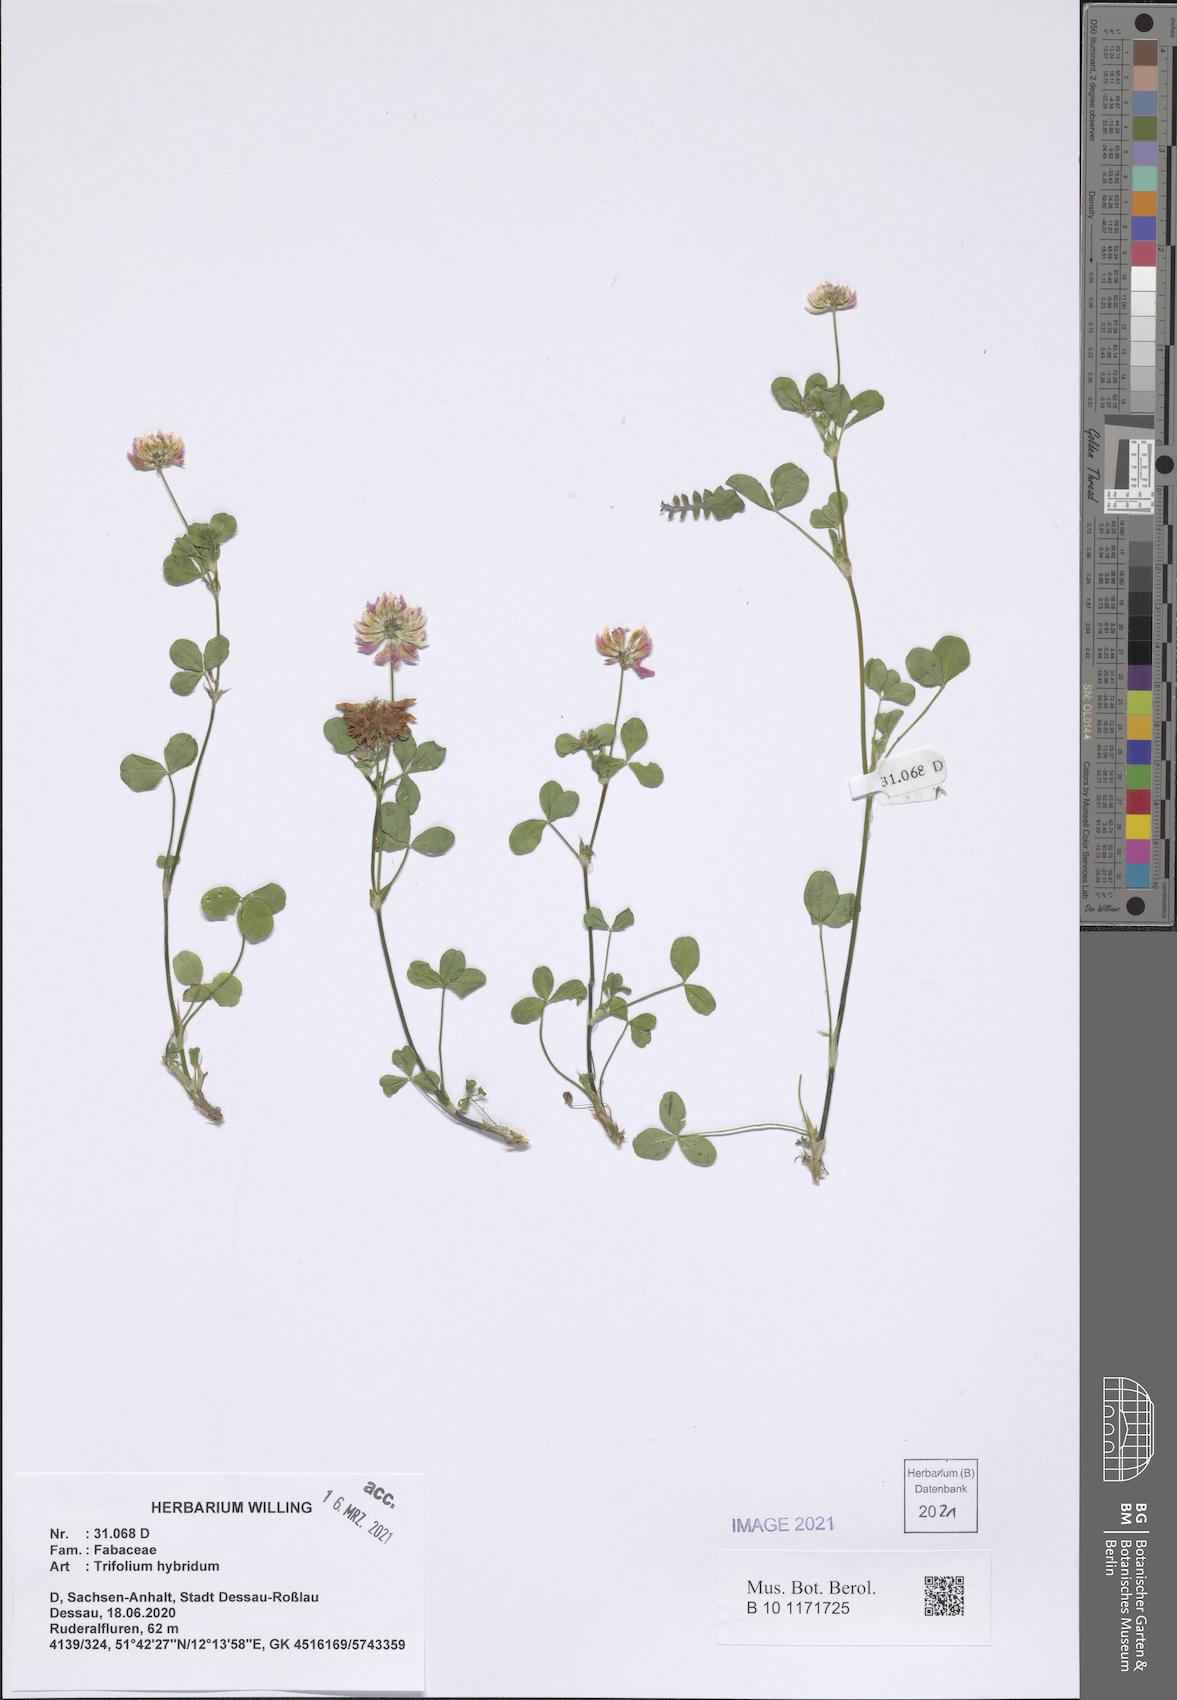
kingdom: Plantae
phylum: Tracheophyta
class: Magnoliopsida
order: Fabales
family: Fabaceae
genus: Trifolium
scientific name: Trifolium hybridum
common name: Alsike clover
